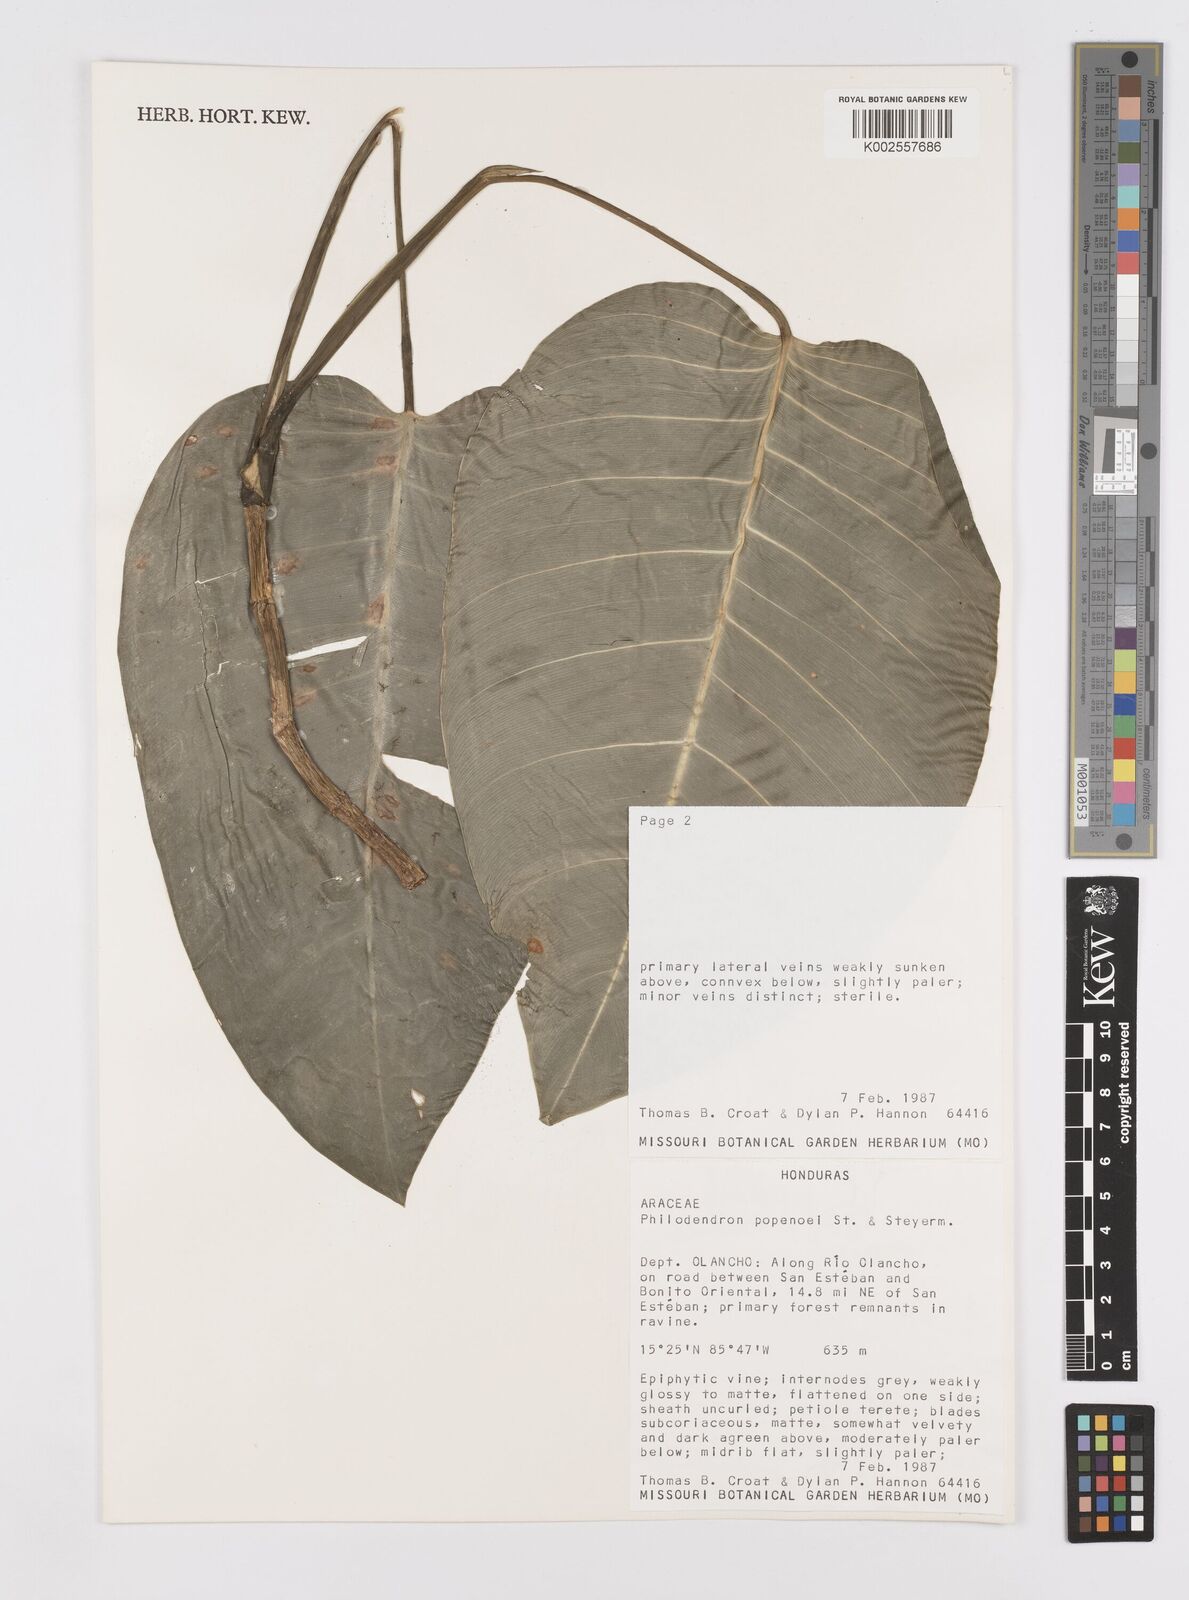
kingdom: Plantae
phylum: Tracheophyta
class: Liliopsida
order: Alismatales
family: Araceae
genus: Philodendron
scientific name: Philodendron popenoei
